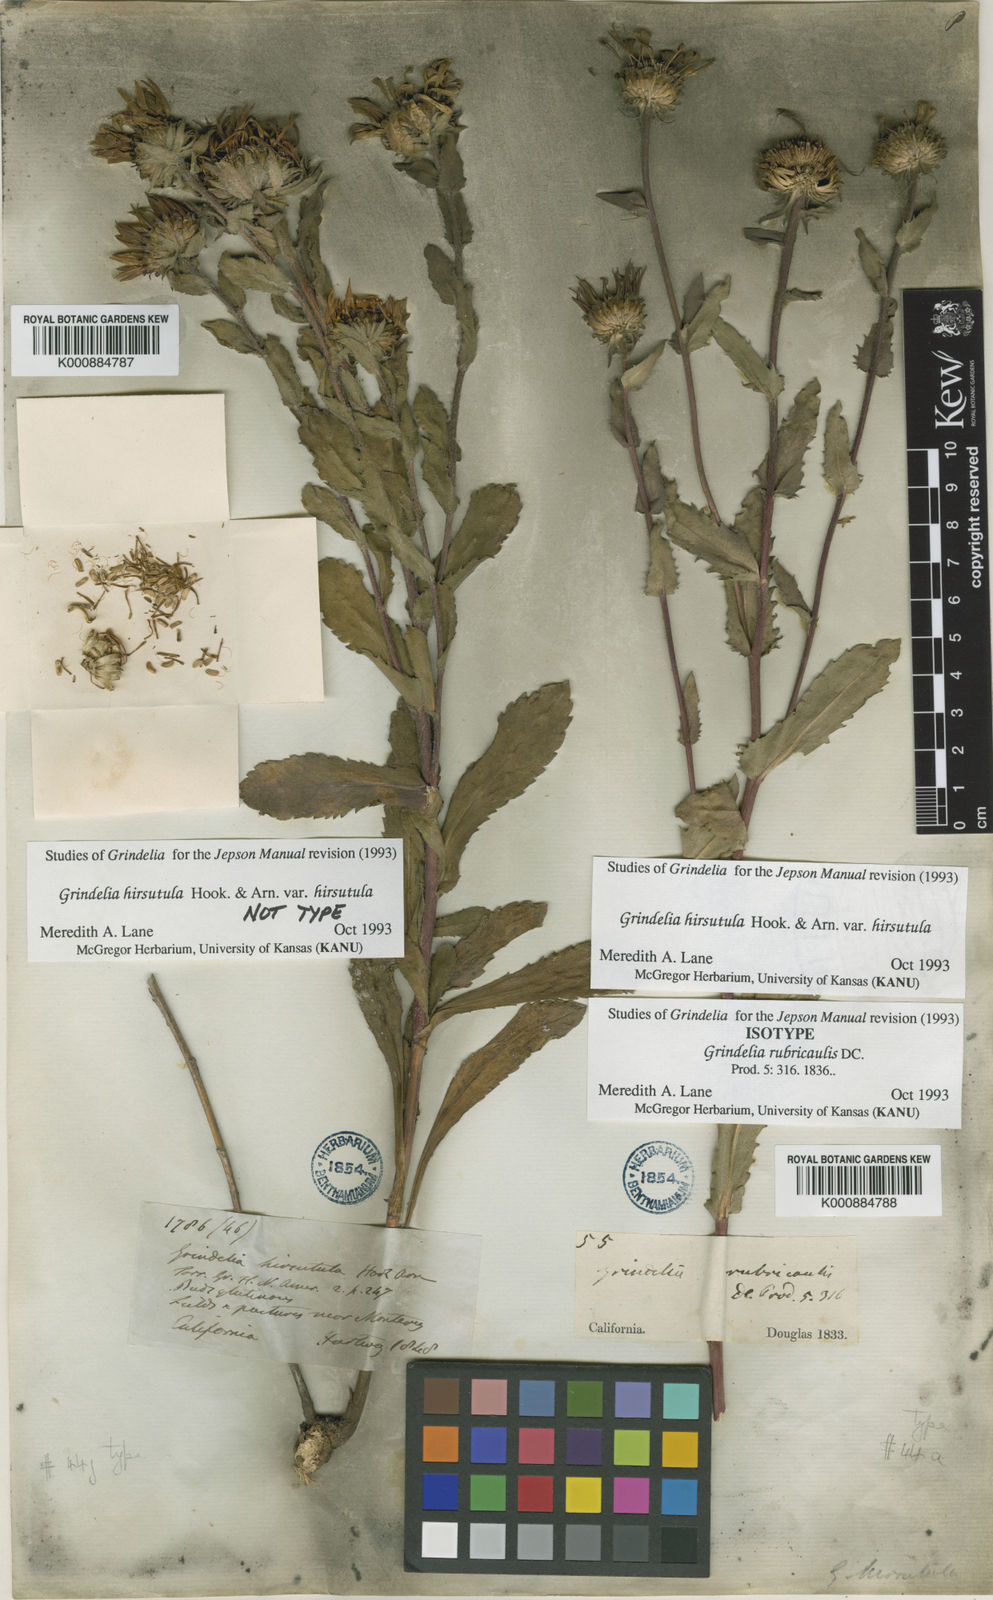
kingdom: Plantae
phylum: Tracheophyta
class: Magnoliopsida
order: Asterales
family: Asteraceae
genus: Grindelia
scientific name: Grindelia hirsutula
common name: Hairy gumweed
